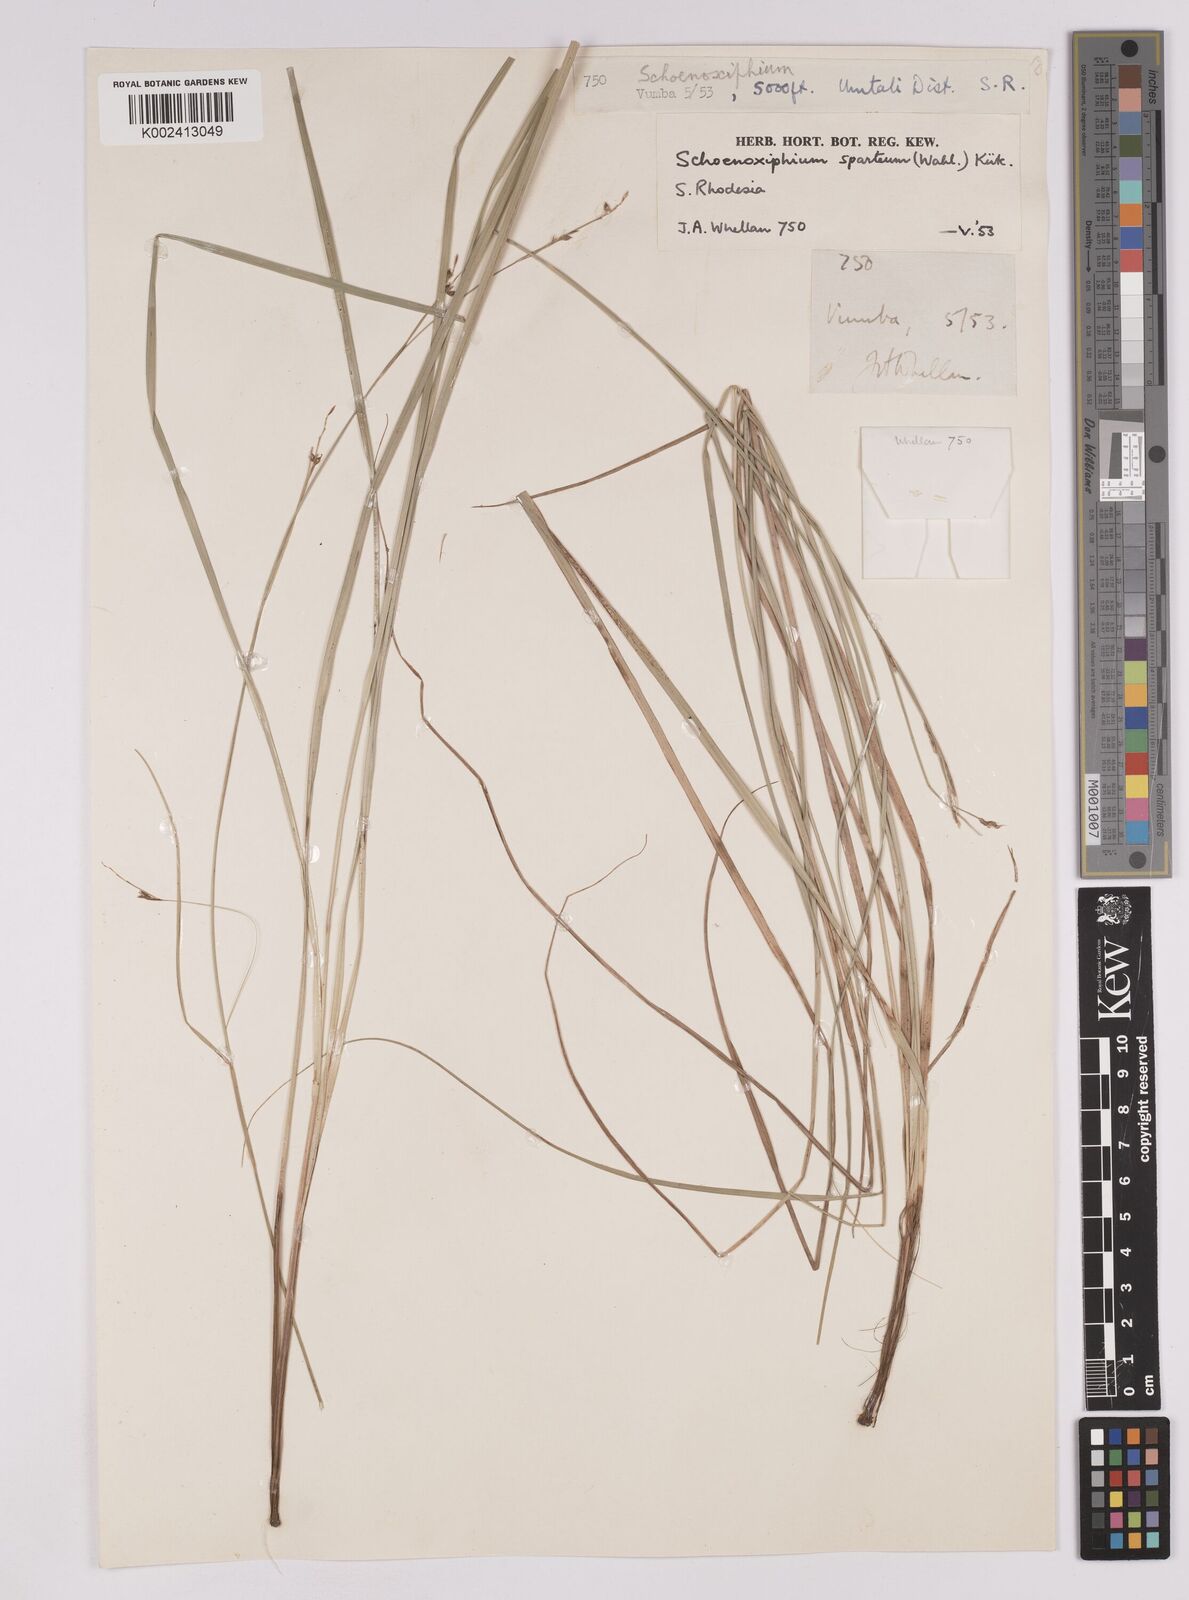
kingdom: Plantae
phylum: Tracheophyta
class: Liliopsida
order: Poales
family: Cyperaceae
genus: Carex
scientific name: Carex spartea
